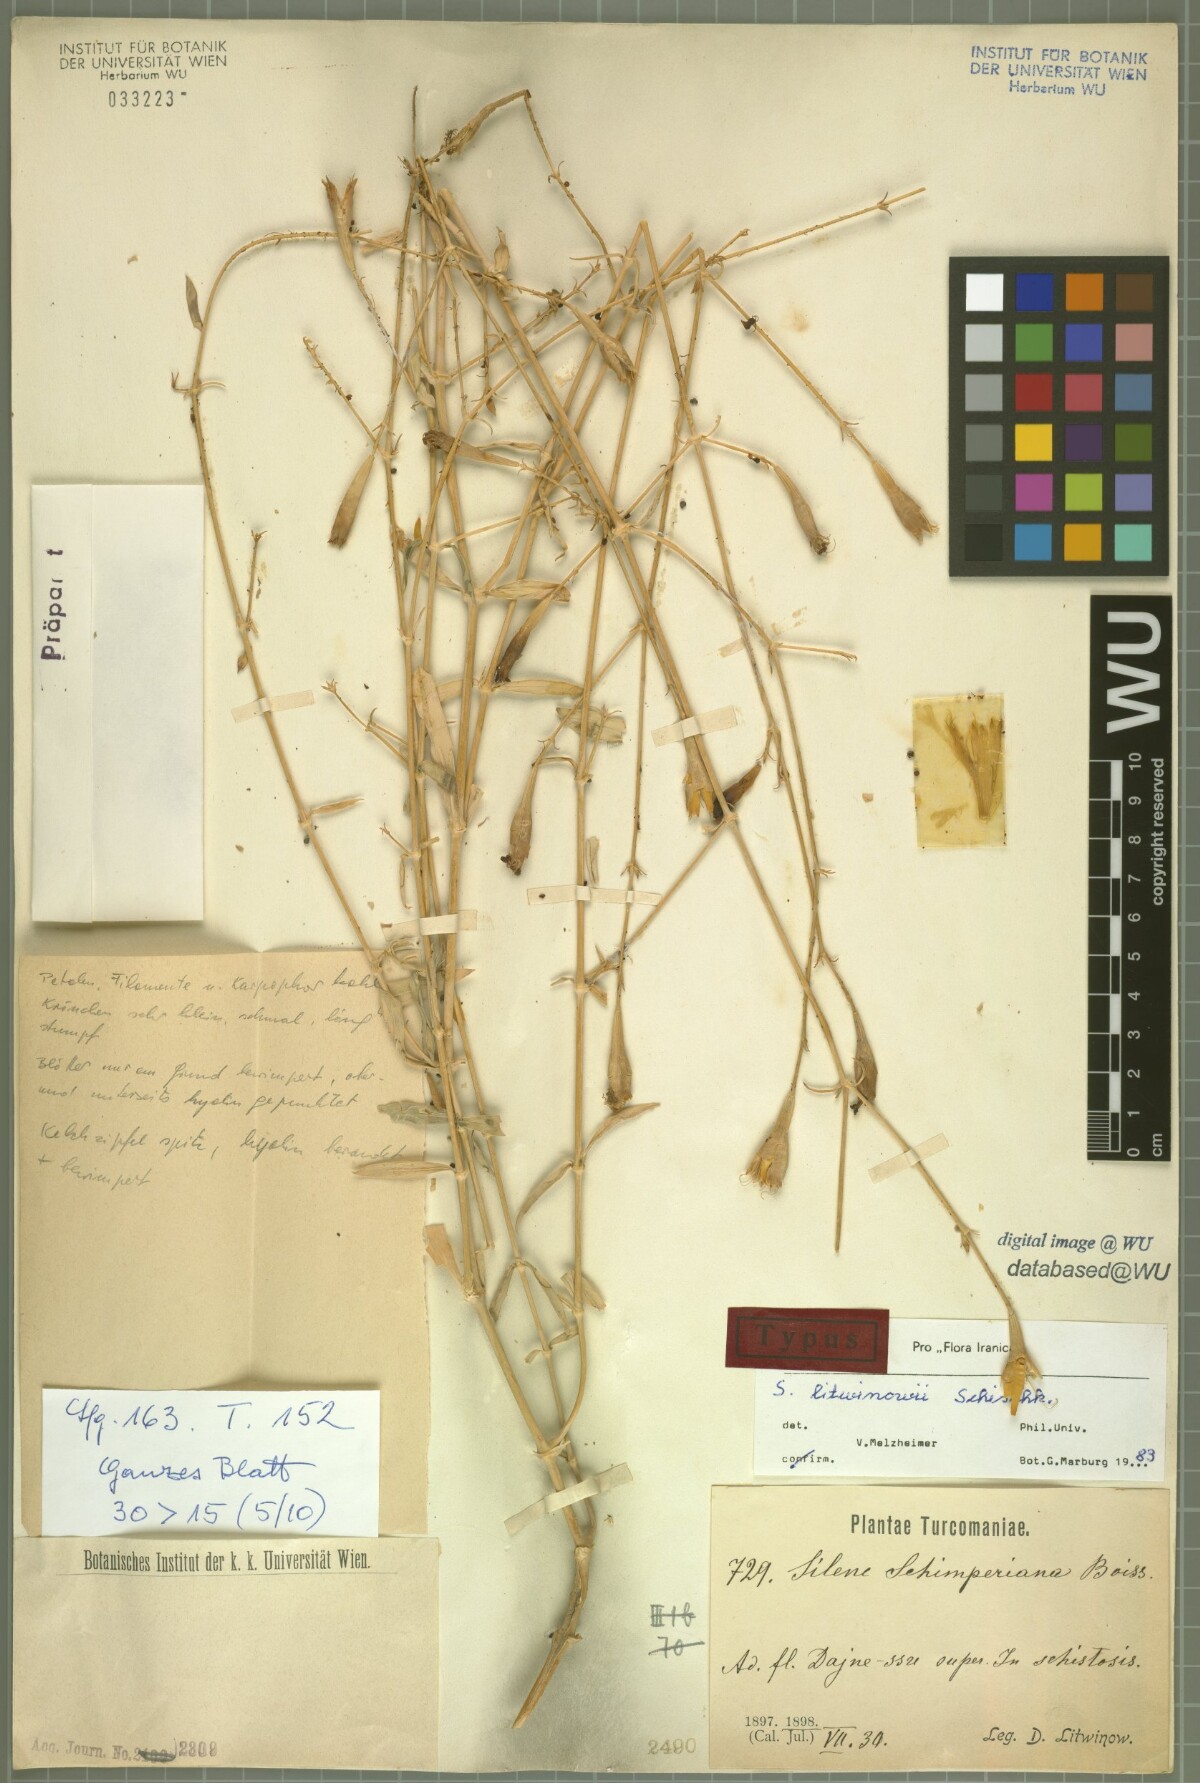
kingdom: Plantae
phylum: Tracheophyta
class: Magnoliopsida
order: Caryophyllales
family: Caryophyllaceae
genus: Silene
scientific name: Silene litwinowii
